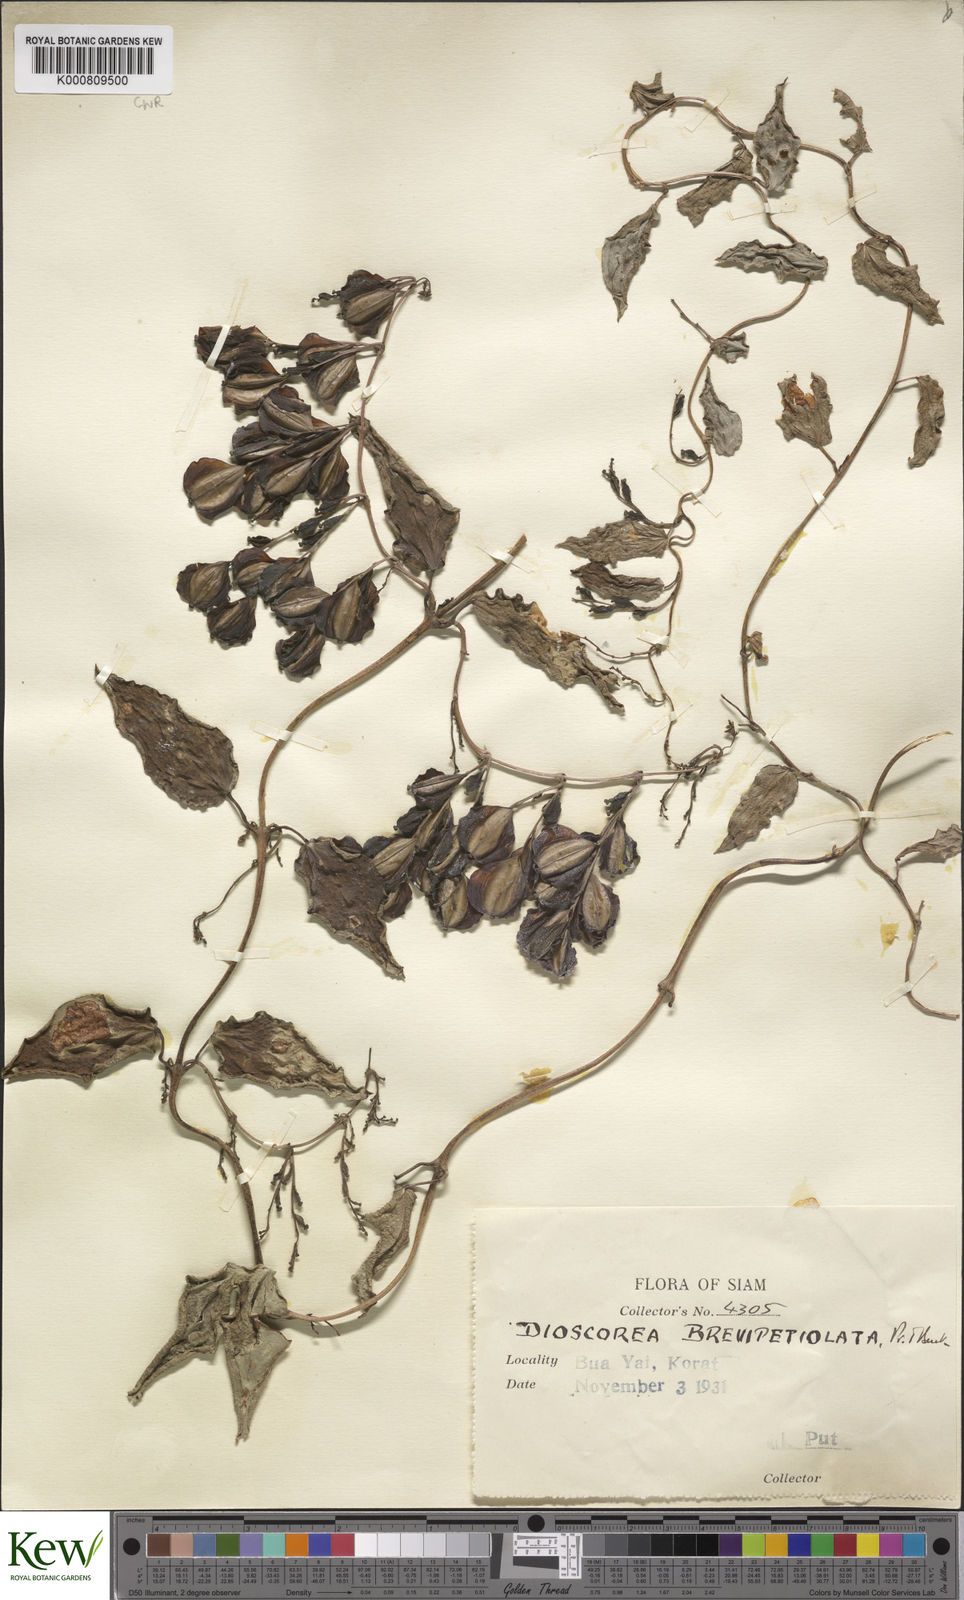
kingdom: Plantae
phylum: Tracheophyta
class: Liliopsida
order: Dioscoreales
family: Dioscoreaceae
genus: Dioscorea
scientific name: Dioscorea brevipetiolata
